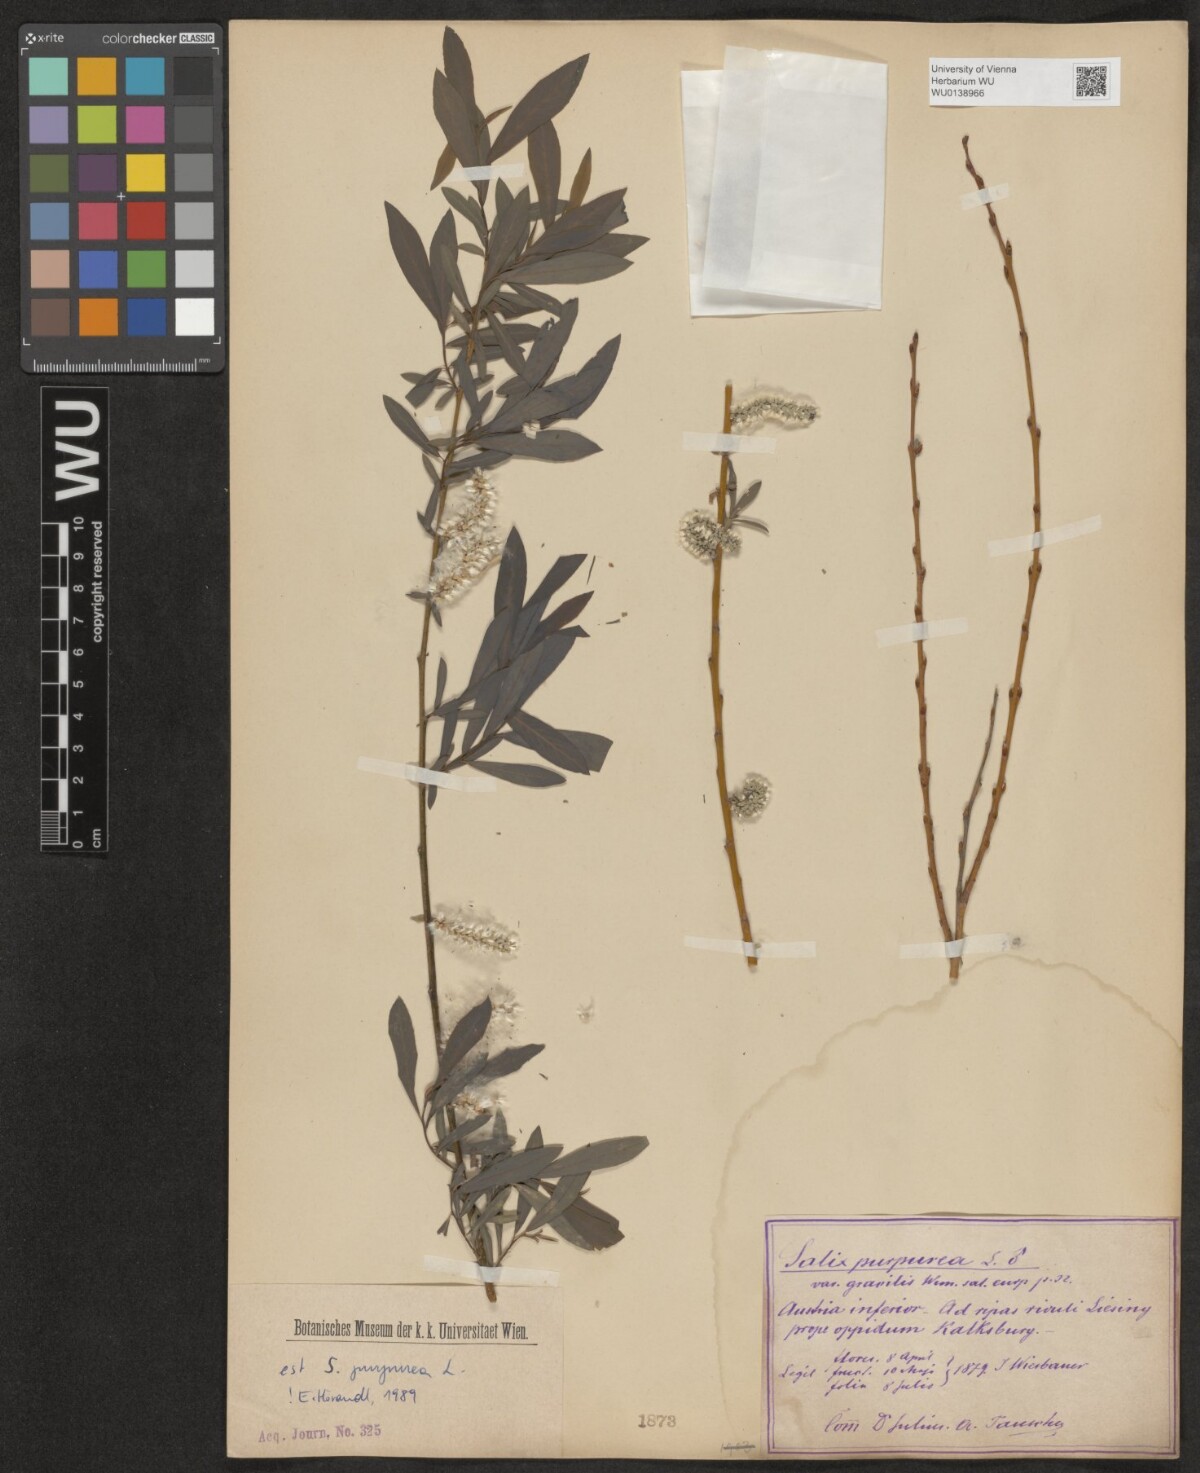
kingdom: Plantae
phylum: Tracheophyta
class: Magnoliopsida
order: Malpighiales
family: Salicaceae
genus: Salix
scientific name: Salix purpurea
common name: Purple willow
